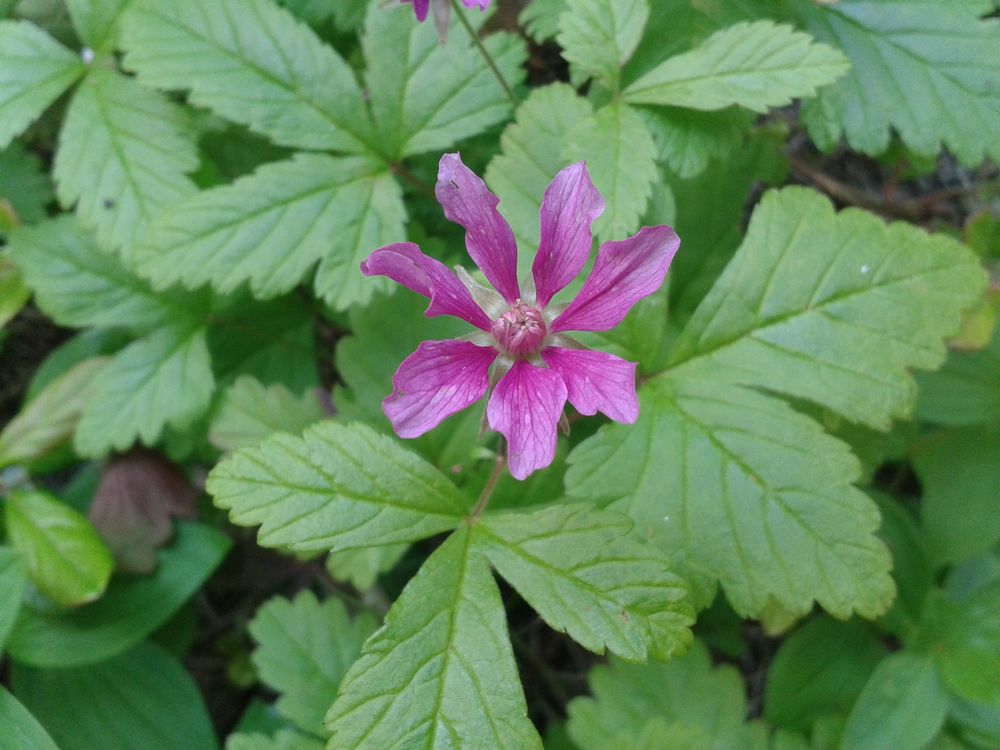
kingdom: Plantae
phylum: Tracheophyta
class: Magnoliopsida
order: Rosales
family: Rosaceae
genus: Rubus
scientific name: Rubus arcticus
